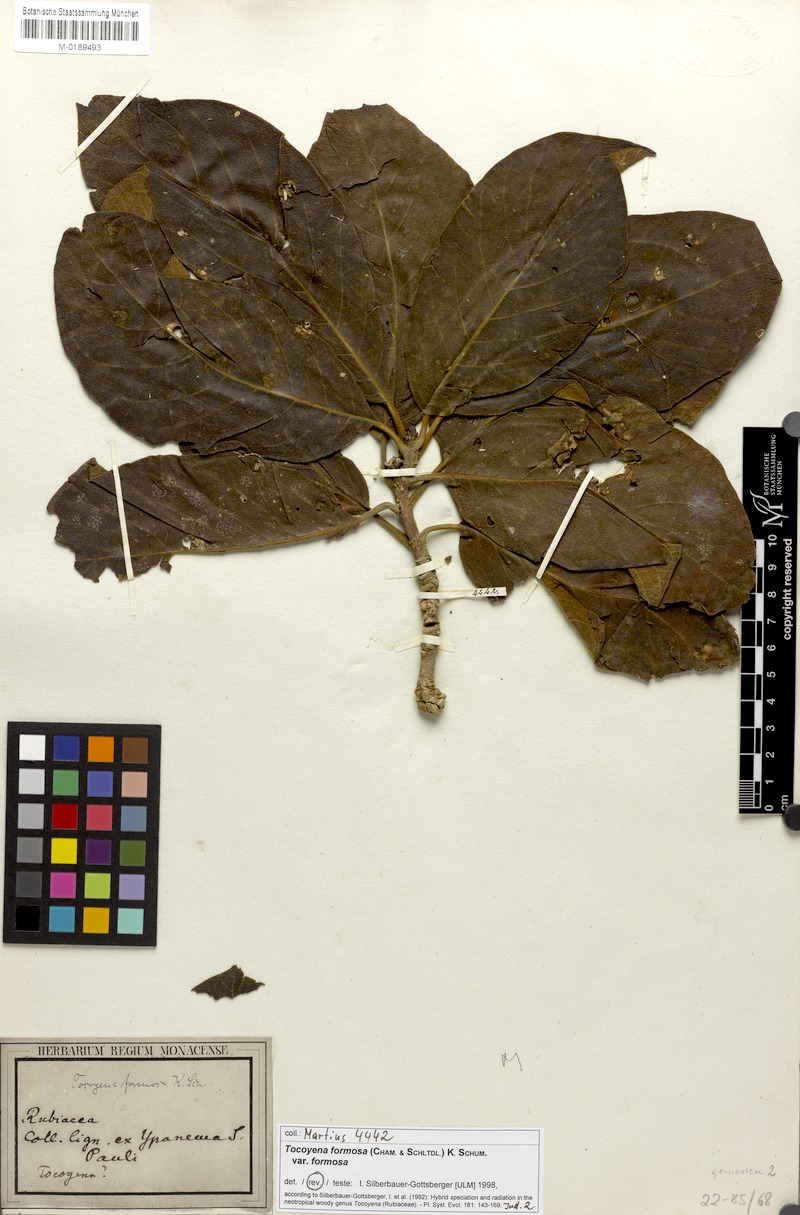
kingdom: Plantae
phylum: Tracheophyta
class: Magnoliopsida
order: Gentianales
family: Rubiaceae
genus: Tocoyena
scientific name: Tocoyena formosa
